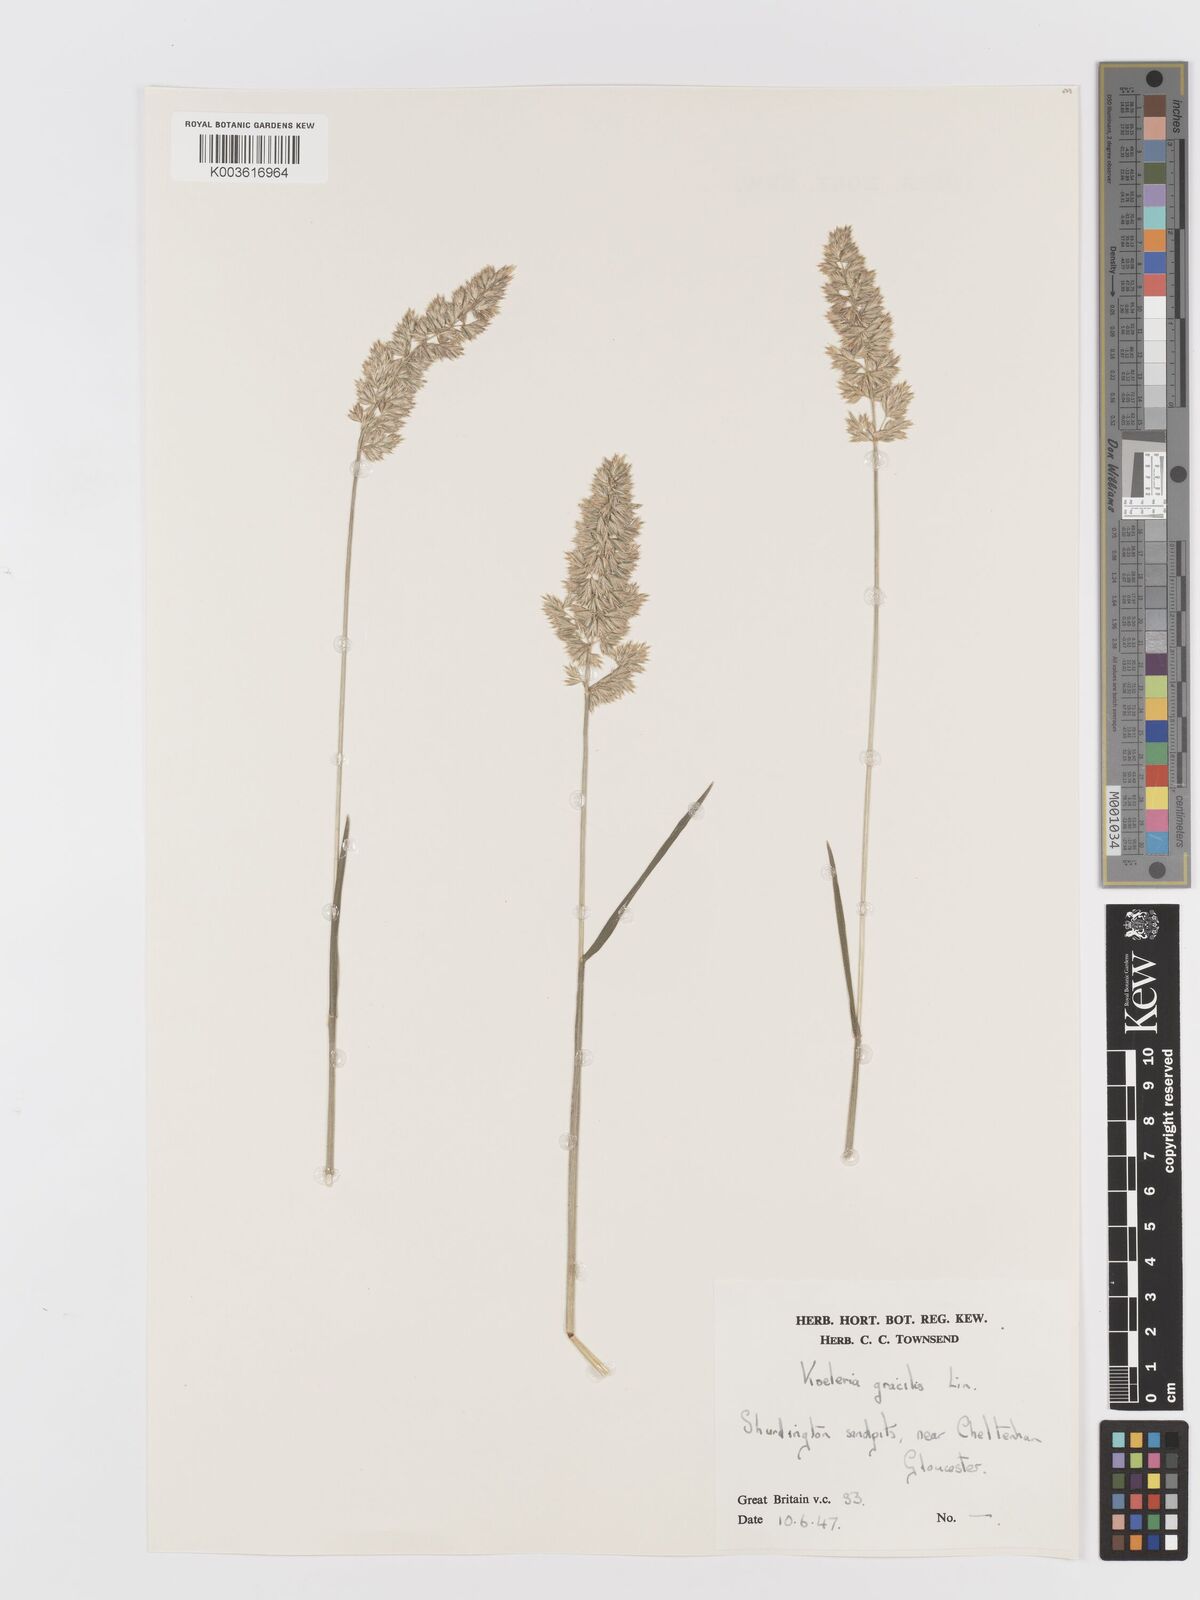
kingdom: Plantae
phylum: Tracheophyta
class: Liliopsida
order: Poales
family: Poaceae
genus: Koeleria
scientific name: Koeleria nitidula
